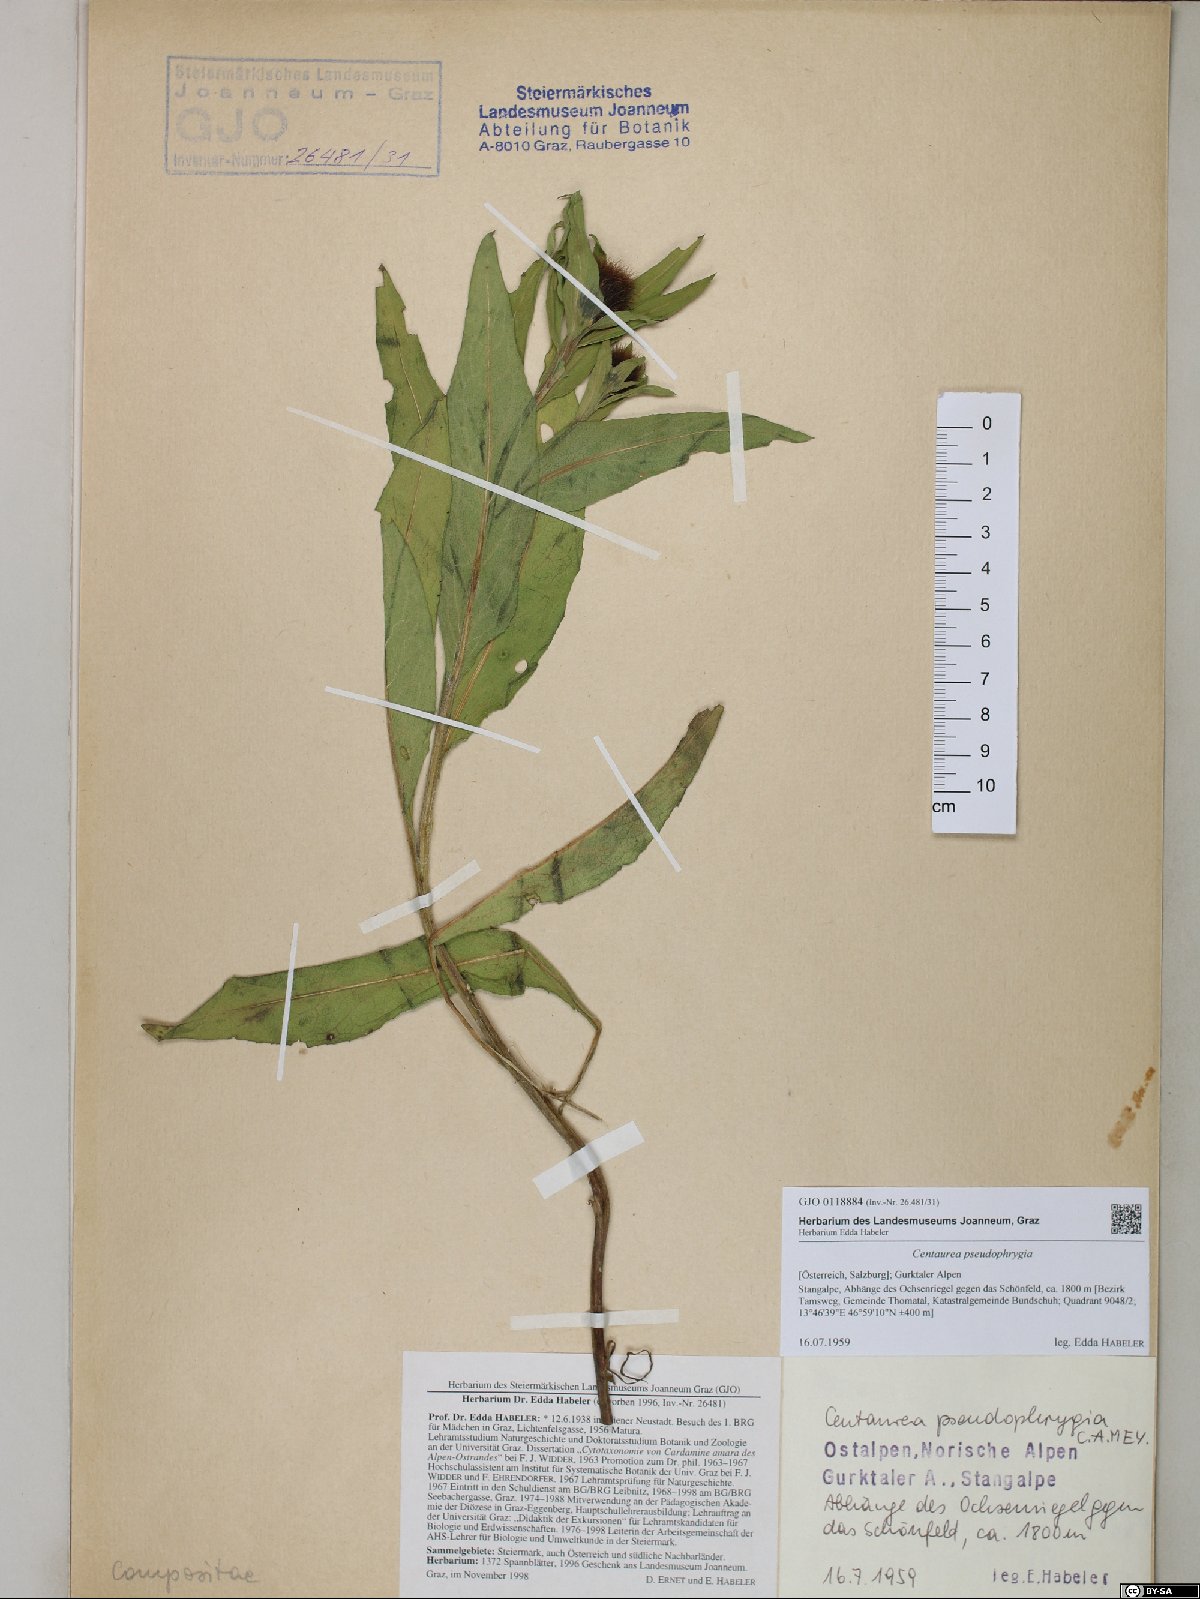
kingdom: Plantae
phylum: Tracheophyta
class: Magnoliopsida
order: Asterales
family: Asteraceae
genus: Centaurea
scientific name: Centaurea pseudophrygia
